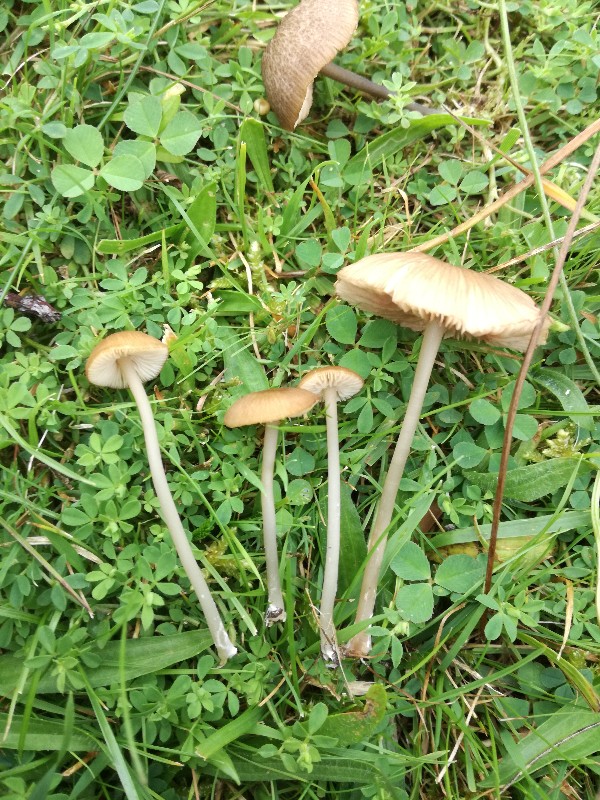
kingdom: Fungi
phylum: Basidiomycota
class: Agaricomycetes
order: Agaricales
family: Entolomataceae
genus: Entoloma
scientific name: Entoloma exile
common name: rødplettet rødblad
